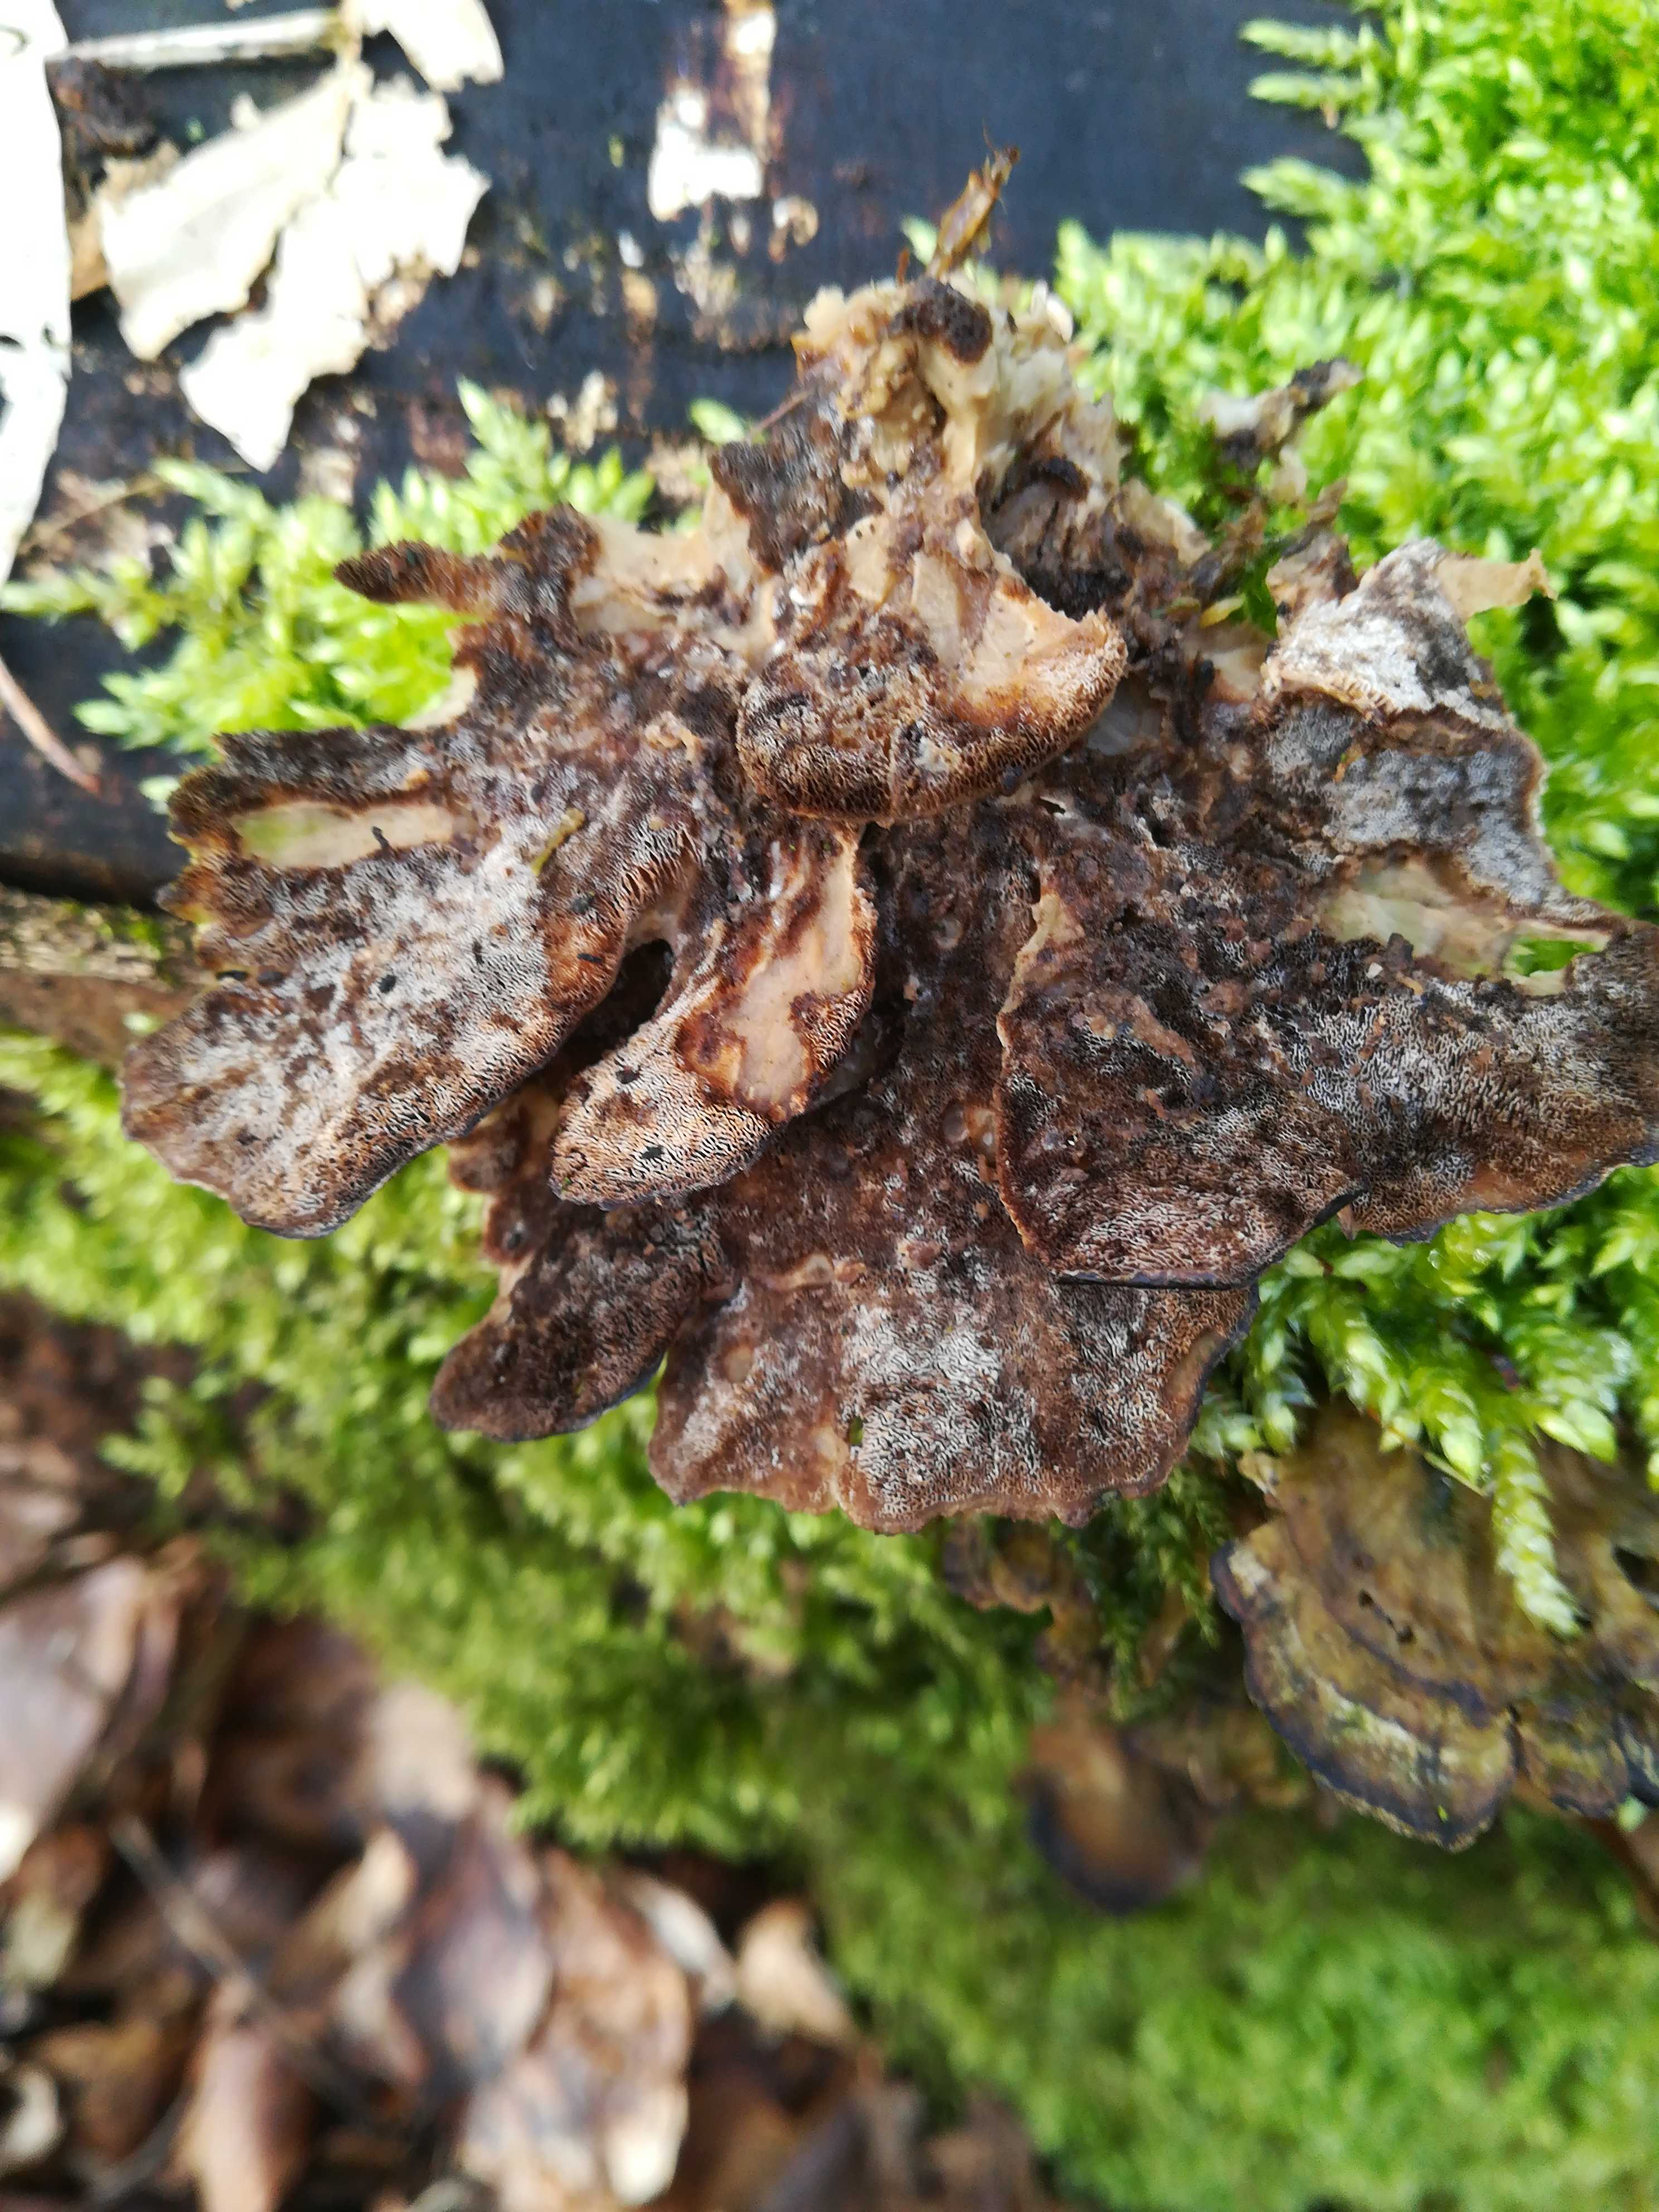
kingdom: Fungi
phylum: Basidiomycota
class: Agaricomycetes
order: Polyporales
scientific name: Polyporales
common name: poresvampordenen
